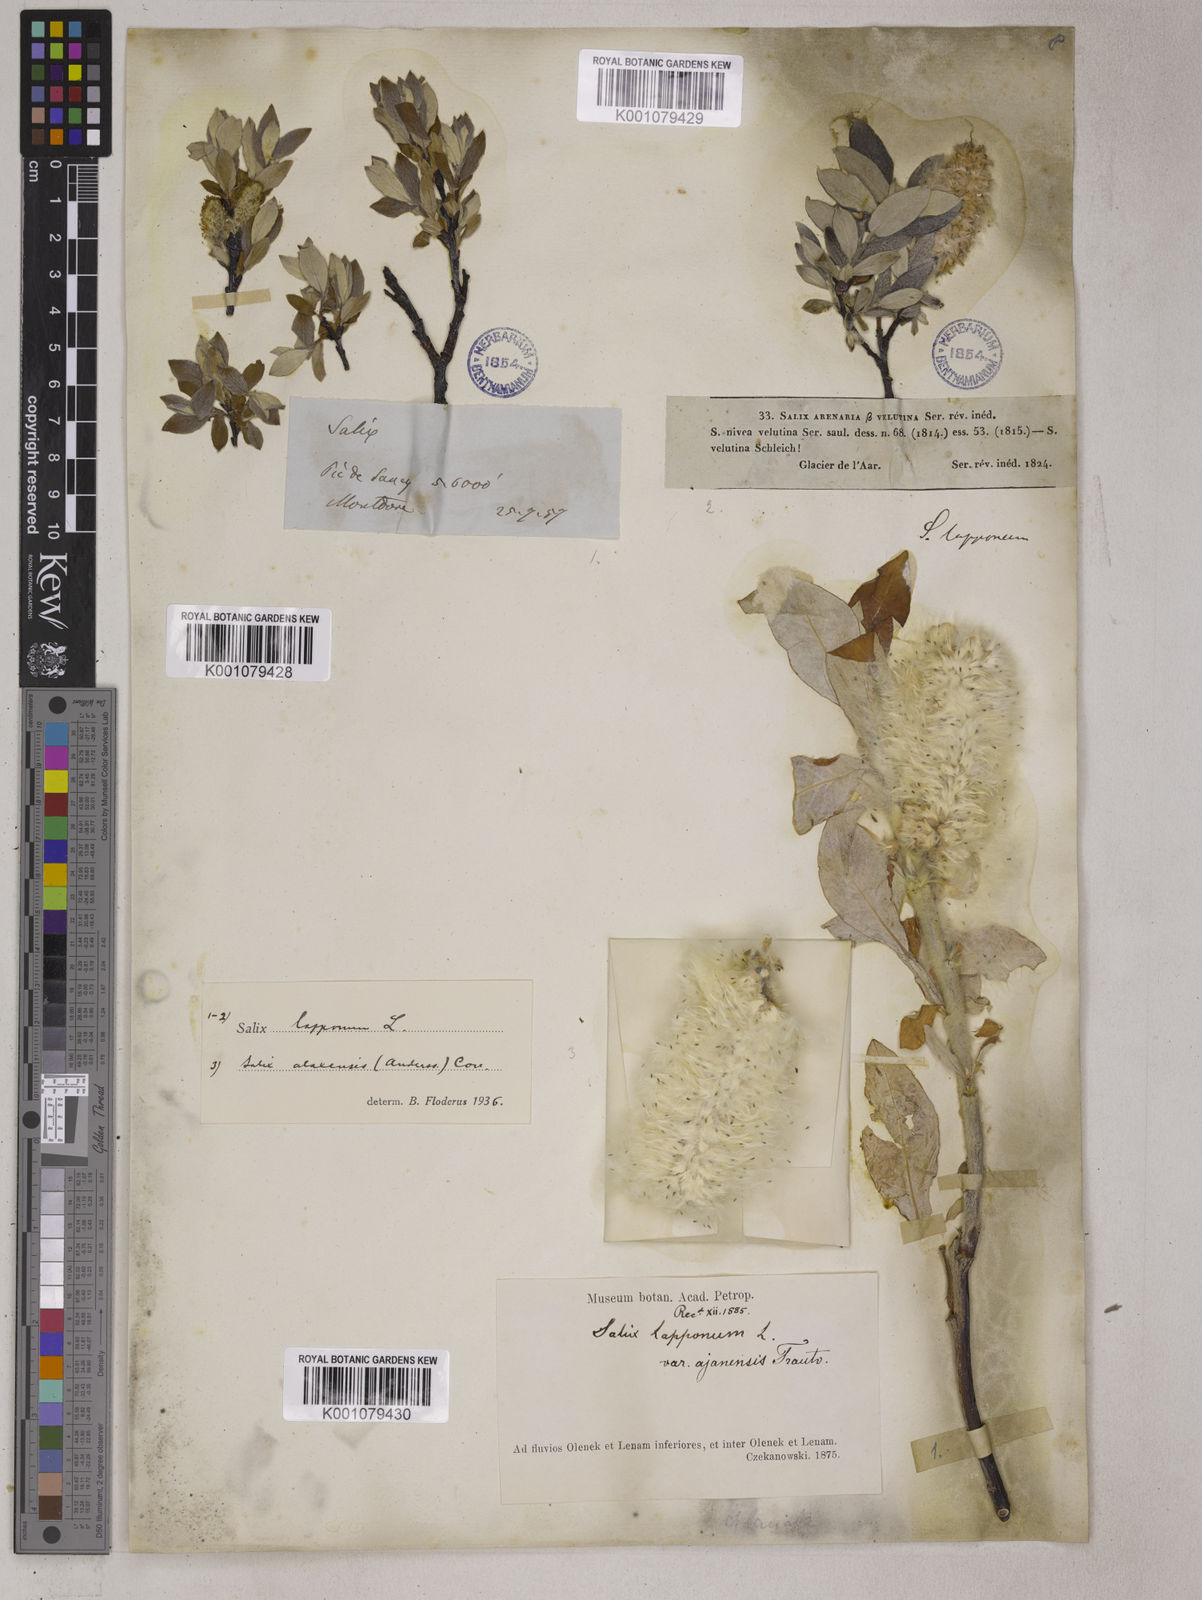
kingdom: Plantae
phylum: Tracheophyta
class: Magnoliopsida
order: Malpighiales
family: Salicaceae
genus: Salix
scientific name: Salix alaxensis
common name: Feltleaf willow
